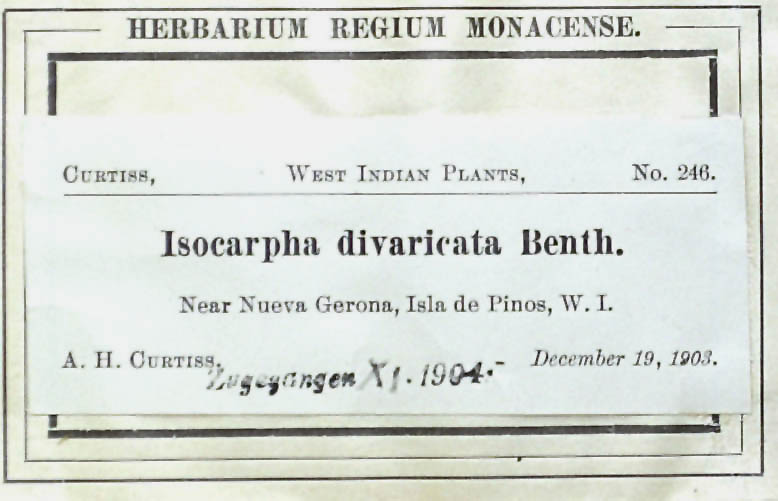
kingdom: Plantae
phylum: Tracheophyta
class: Magnoliopsida
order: Asterales
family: Asteraceae
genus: Isocarpha
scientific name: Isocarpha atriplicifolia
